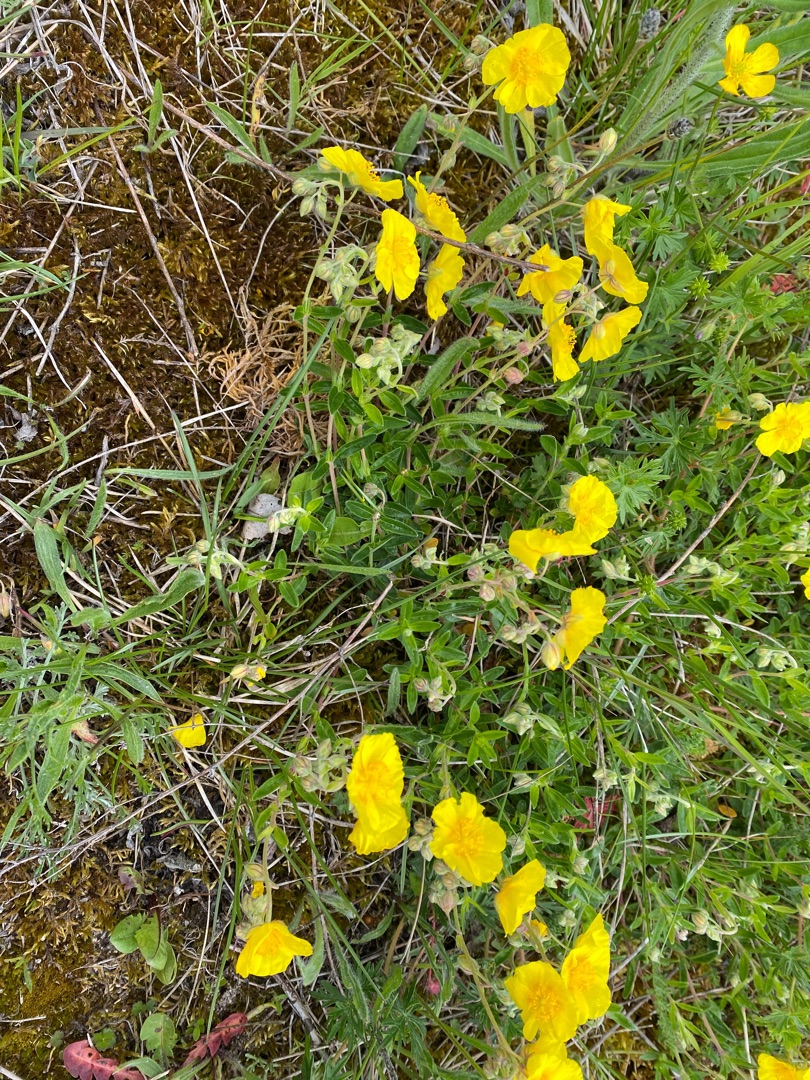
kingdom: Plantae
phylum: Tracheophyta
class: Magnoliopsida
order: Malvales
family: Cistaceae
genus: Helianthemum
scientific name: Helianthemum nummularium
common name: Bakke-soløje
